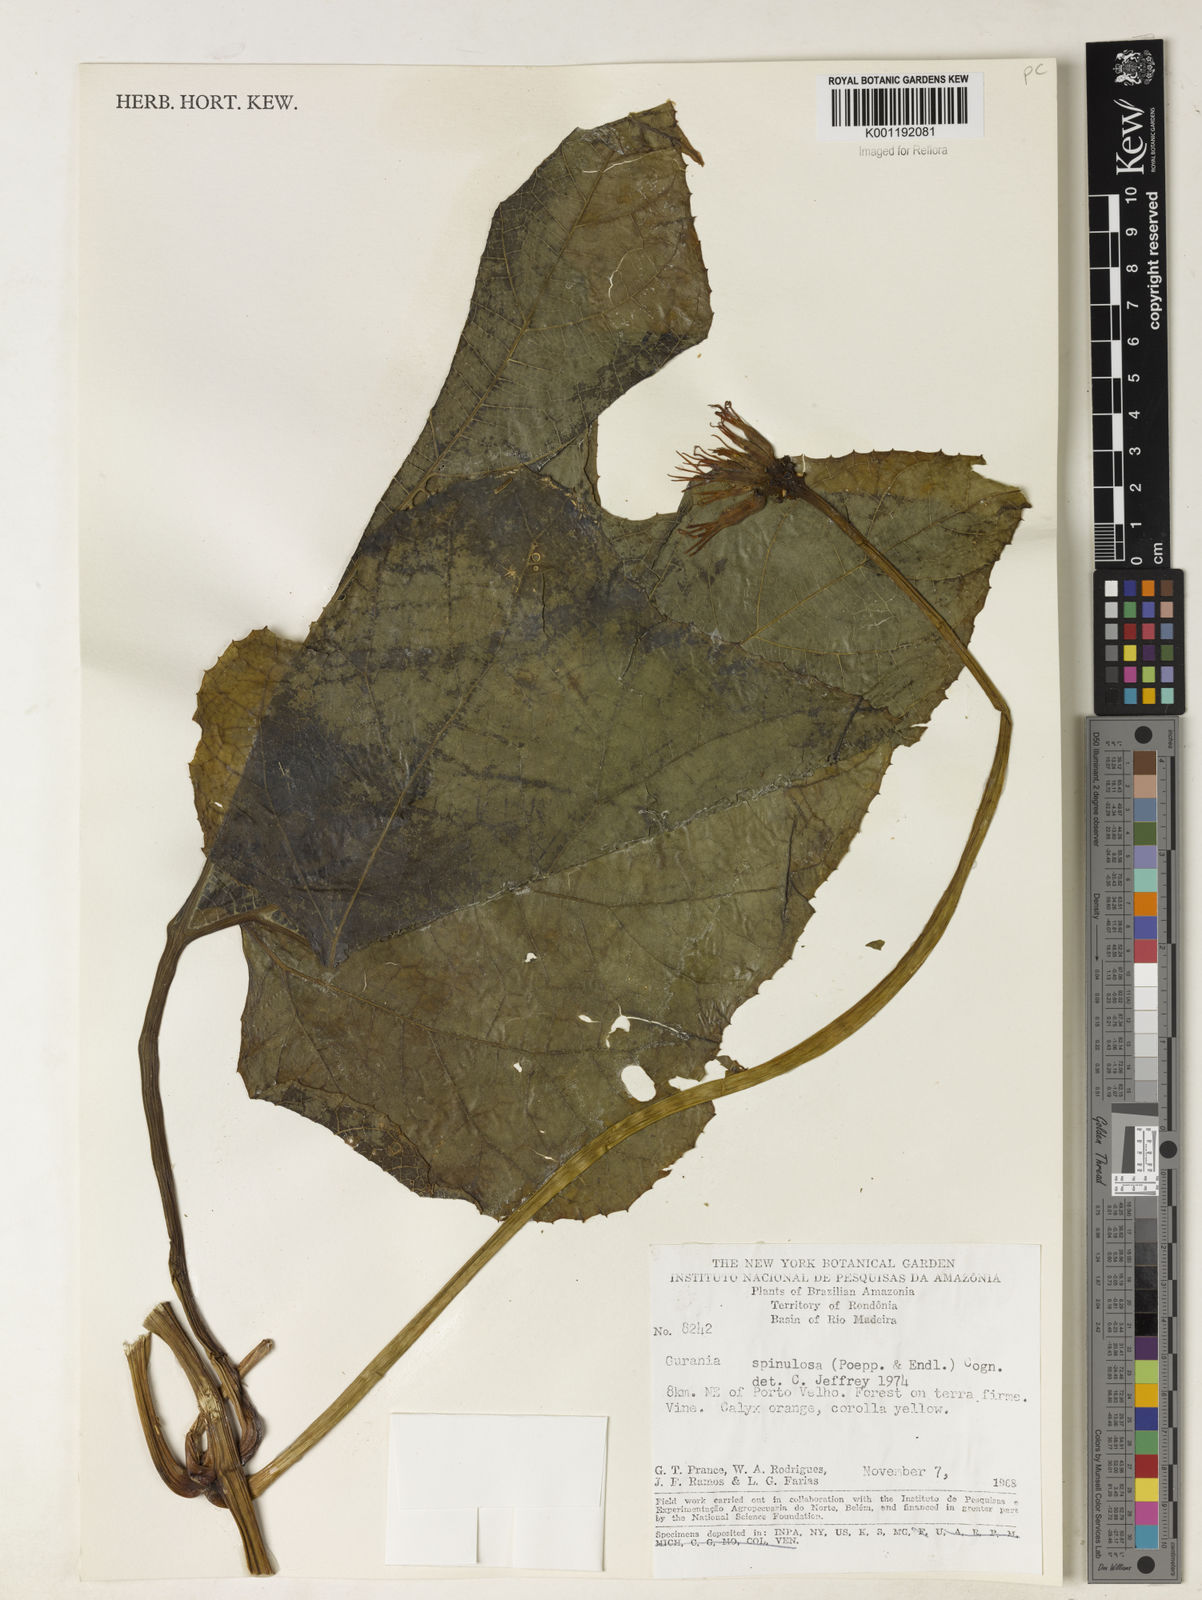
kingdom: Plantae
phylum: Tracheophyta
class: Magnoliopsida
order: Cucurbitales
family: Cucurbitaceae
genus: Gurania
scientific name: Gurania lobata
